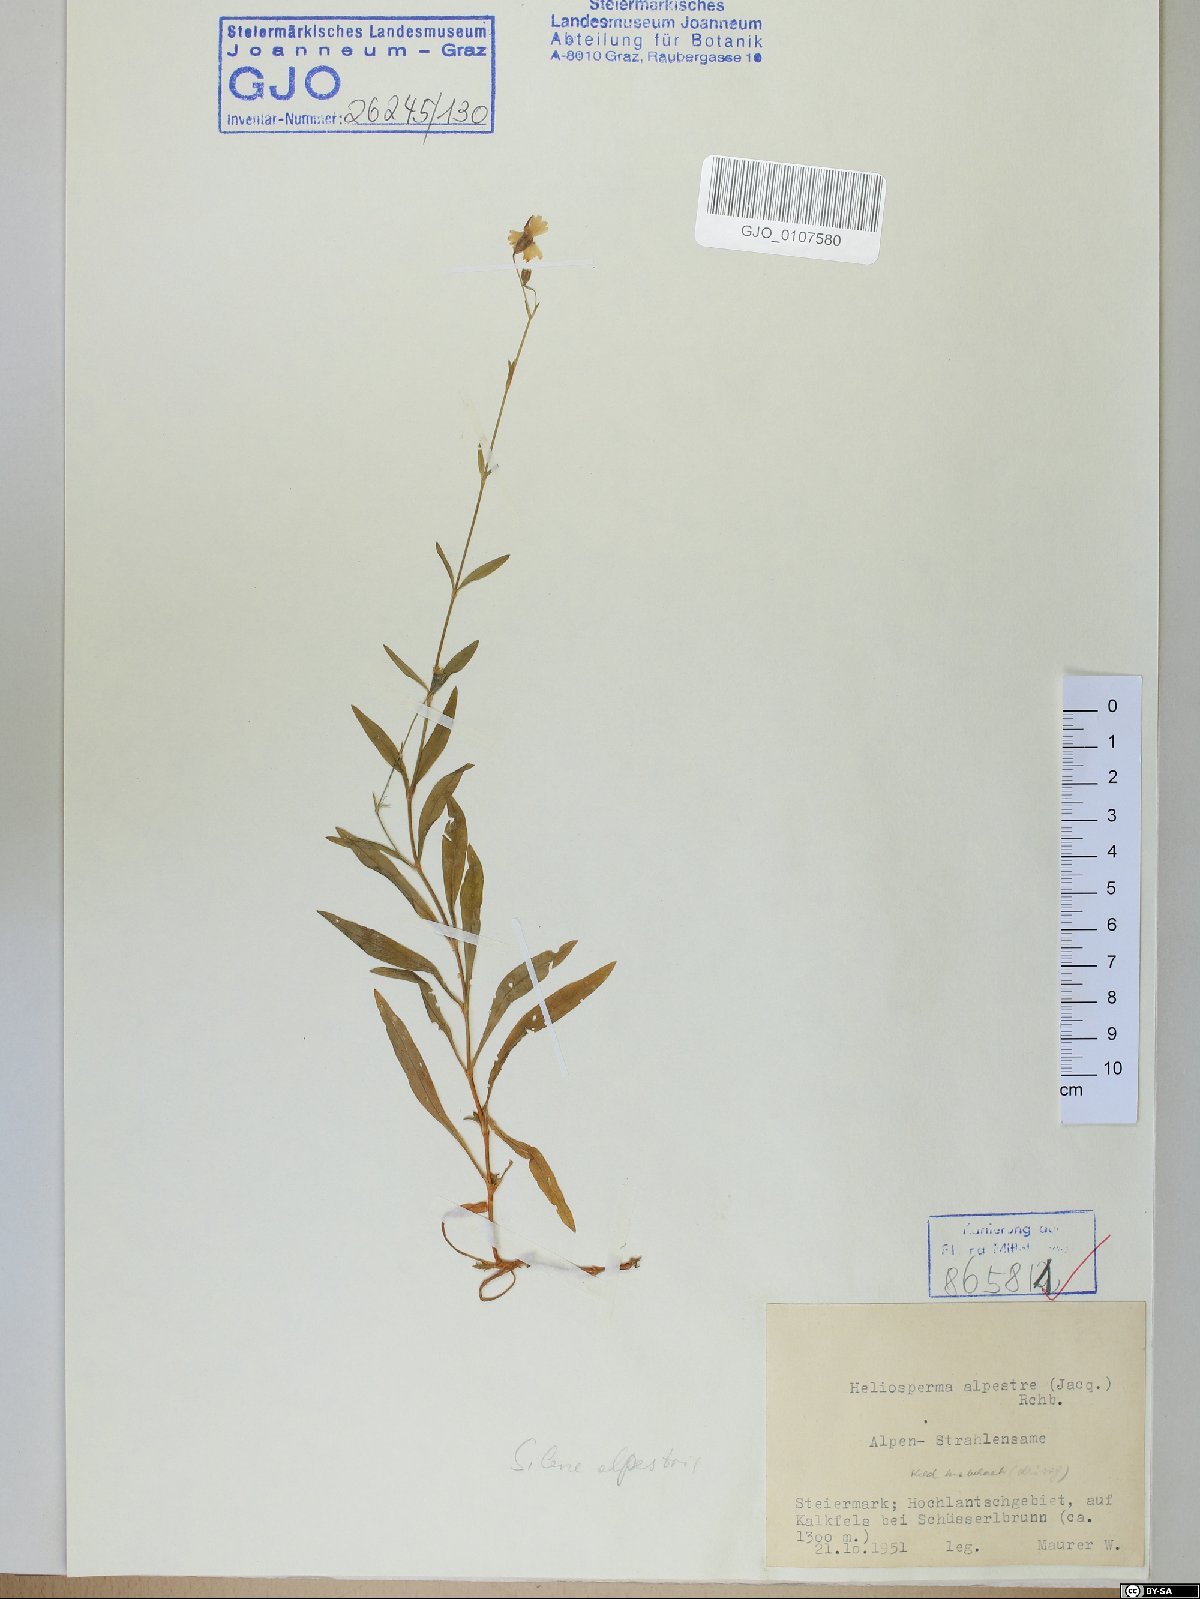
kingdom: Plantae
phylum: Tracheophyta
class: Magnoliopsida
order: Caryophyllales
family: Caryophyllaceae
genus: Heliosperma
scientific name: Heliosperma alpestre
